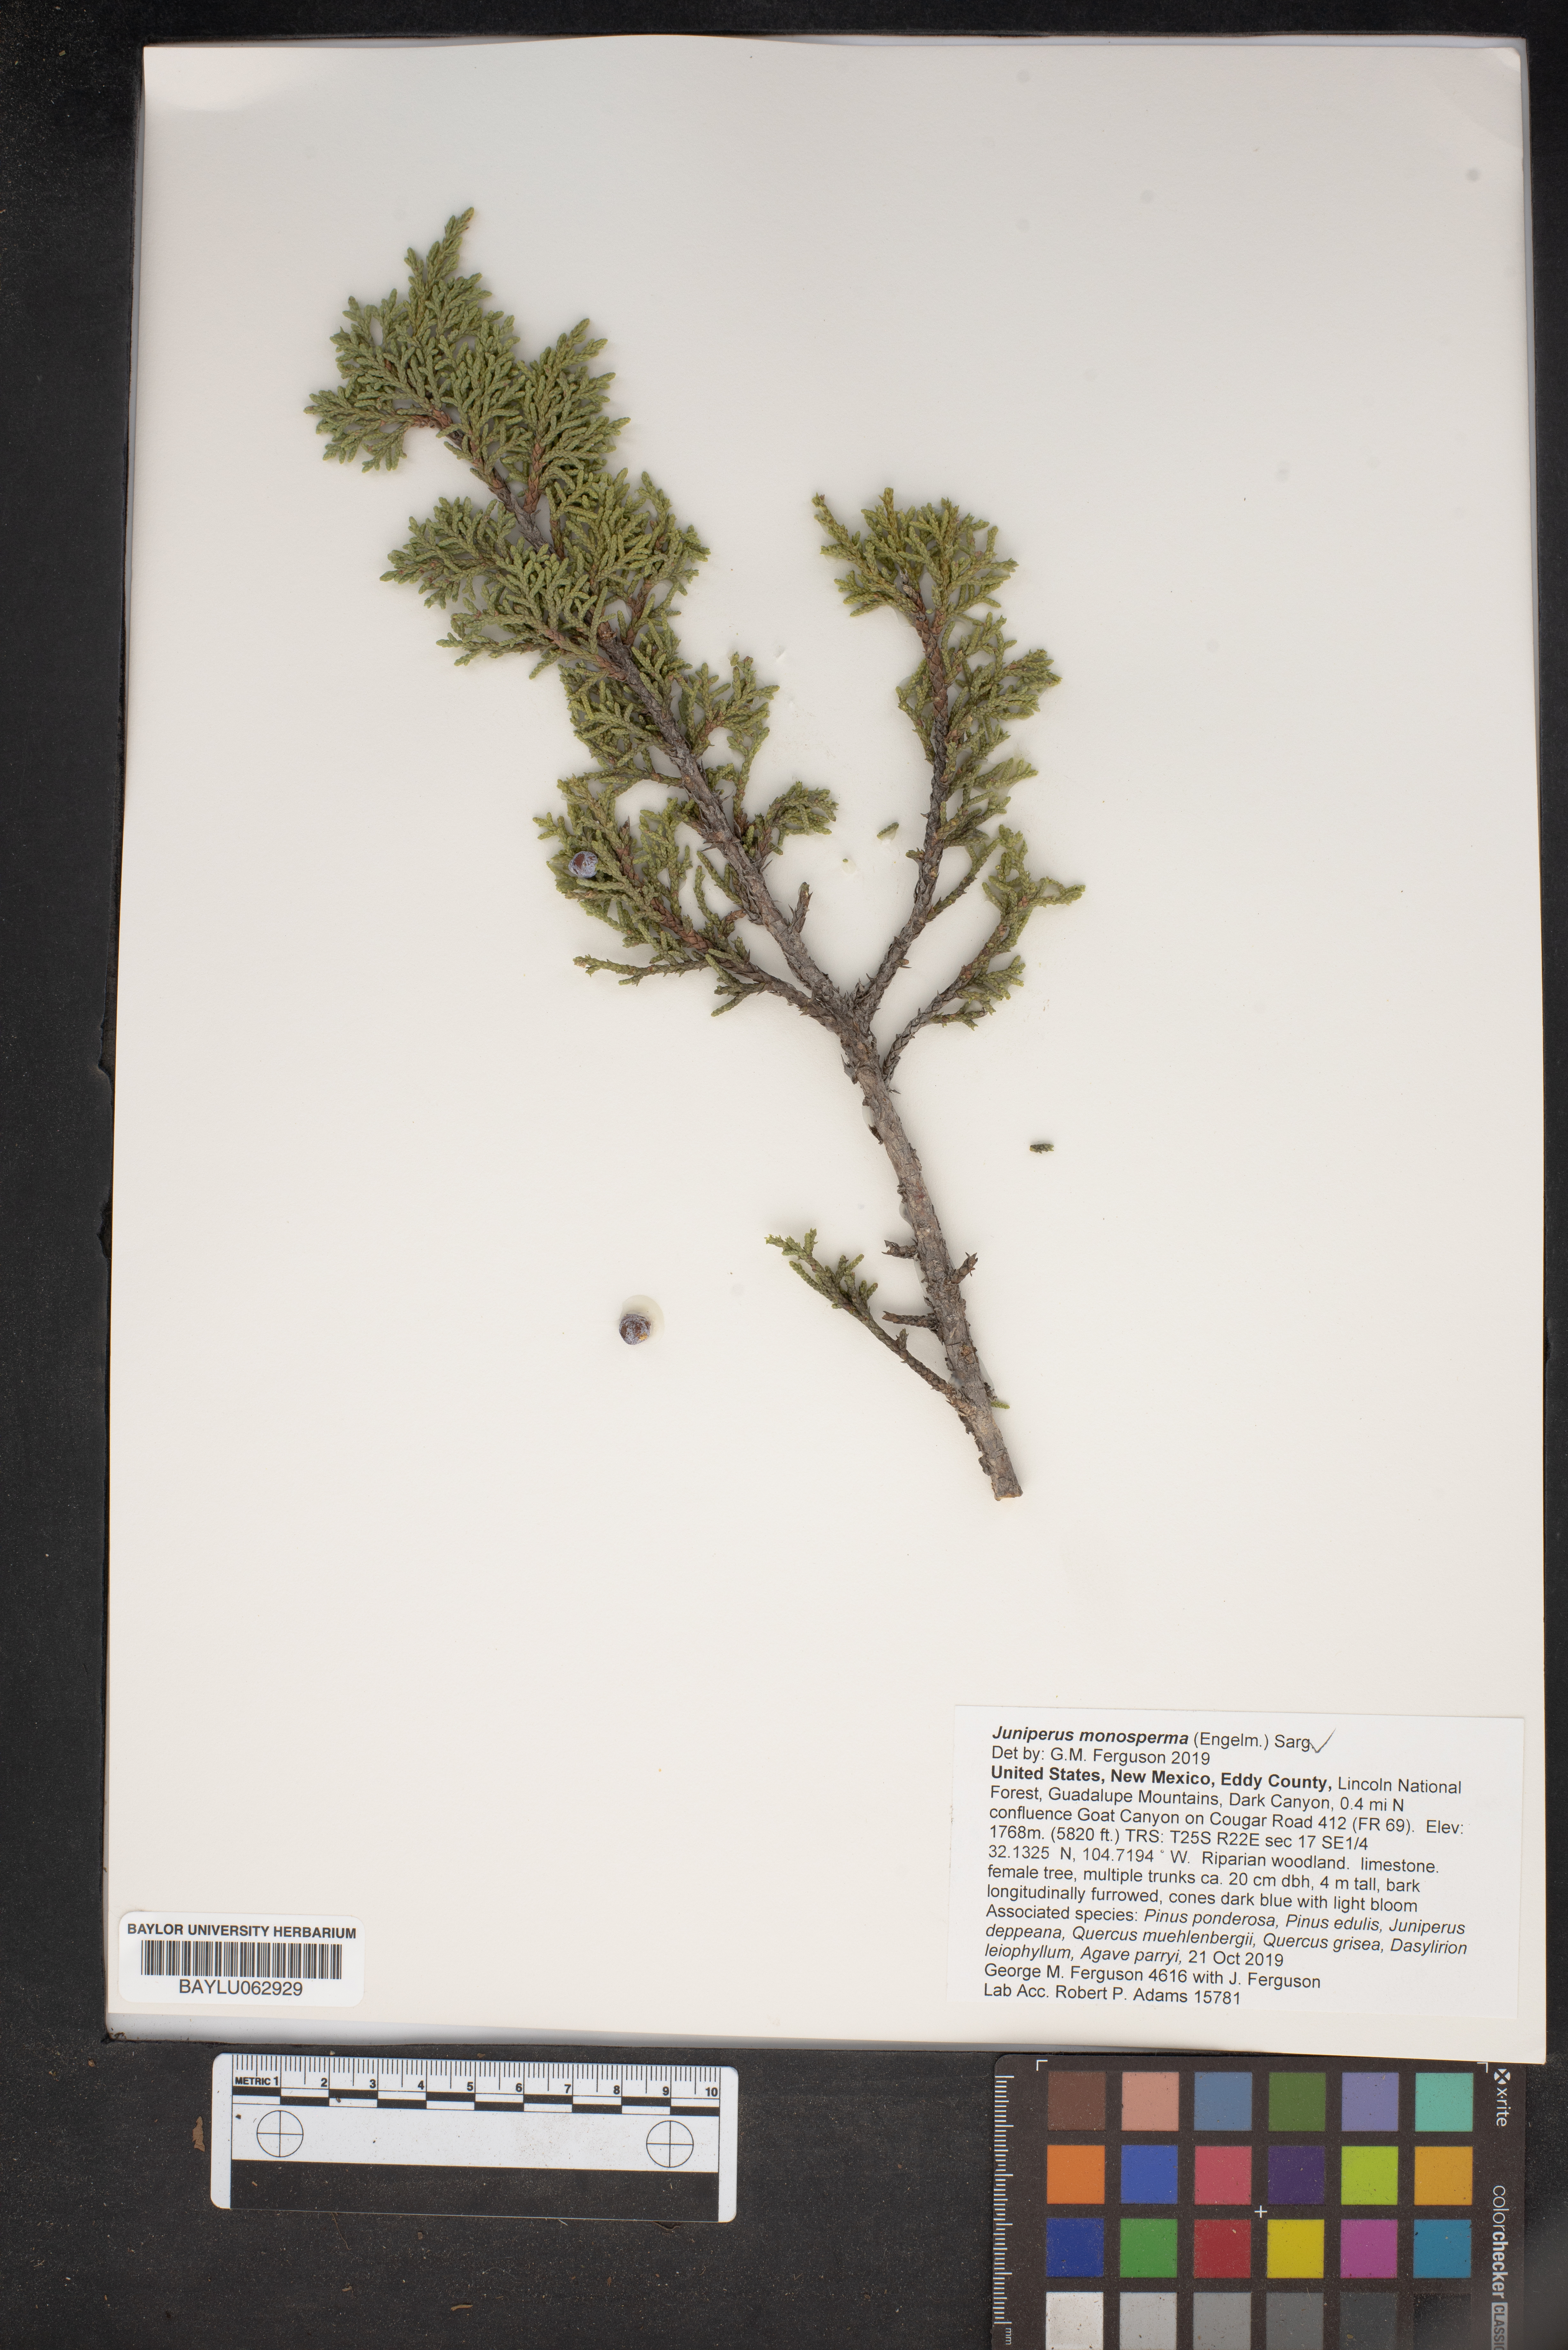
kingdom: Plantae
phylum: Tracheophyta
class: Pinopsida
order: Pinales
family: Cupressaceae
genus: Juniperus
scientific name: Juniperus monosperma
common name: One-seed juniper
